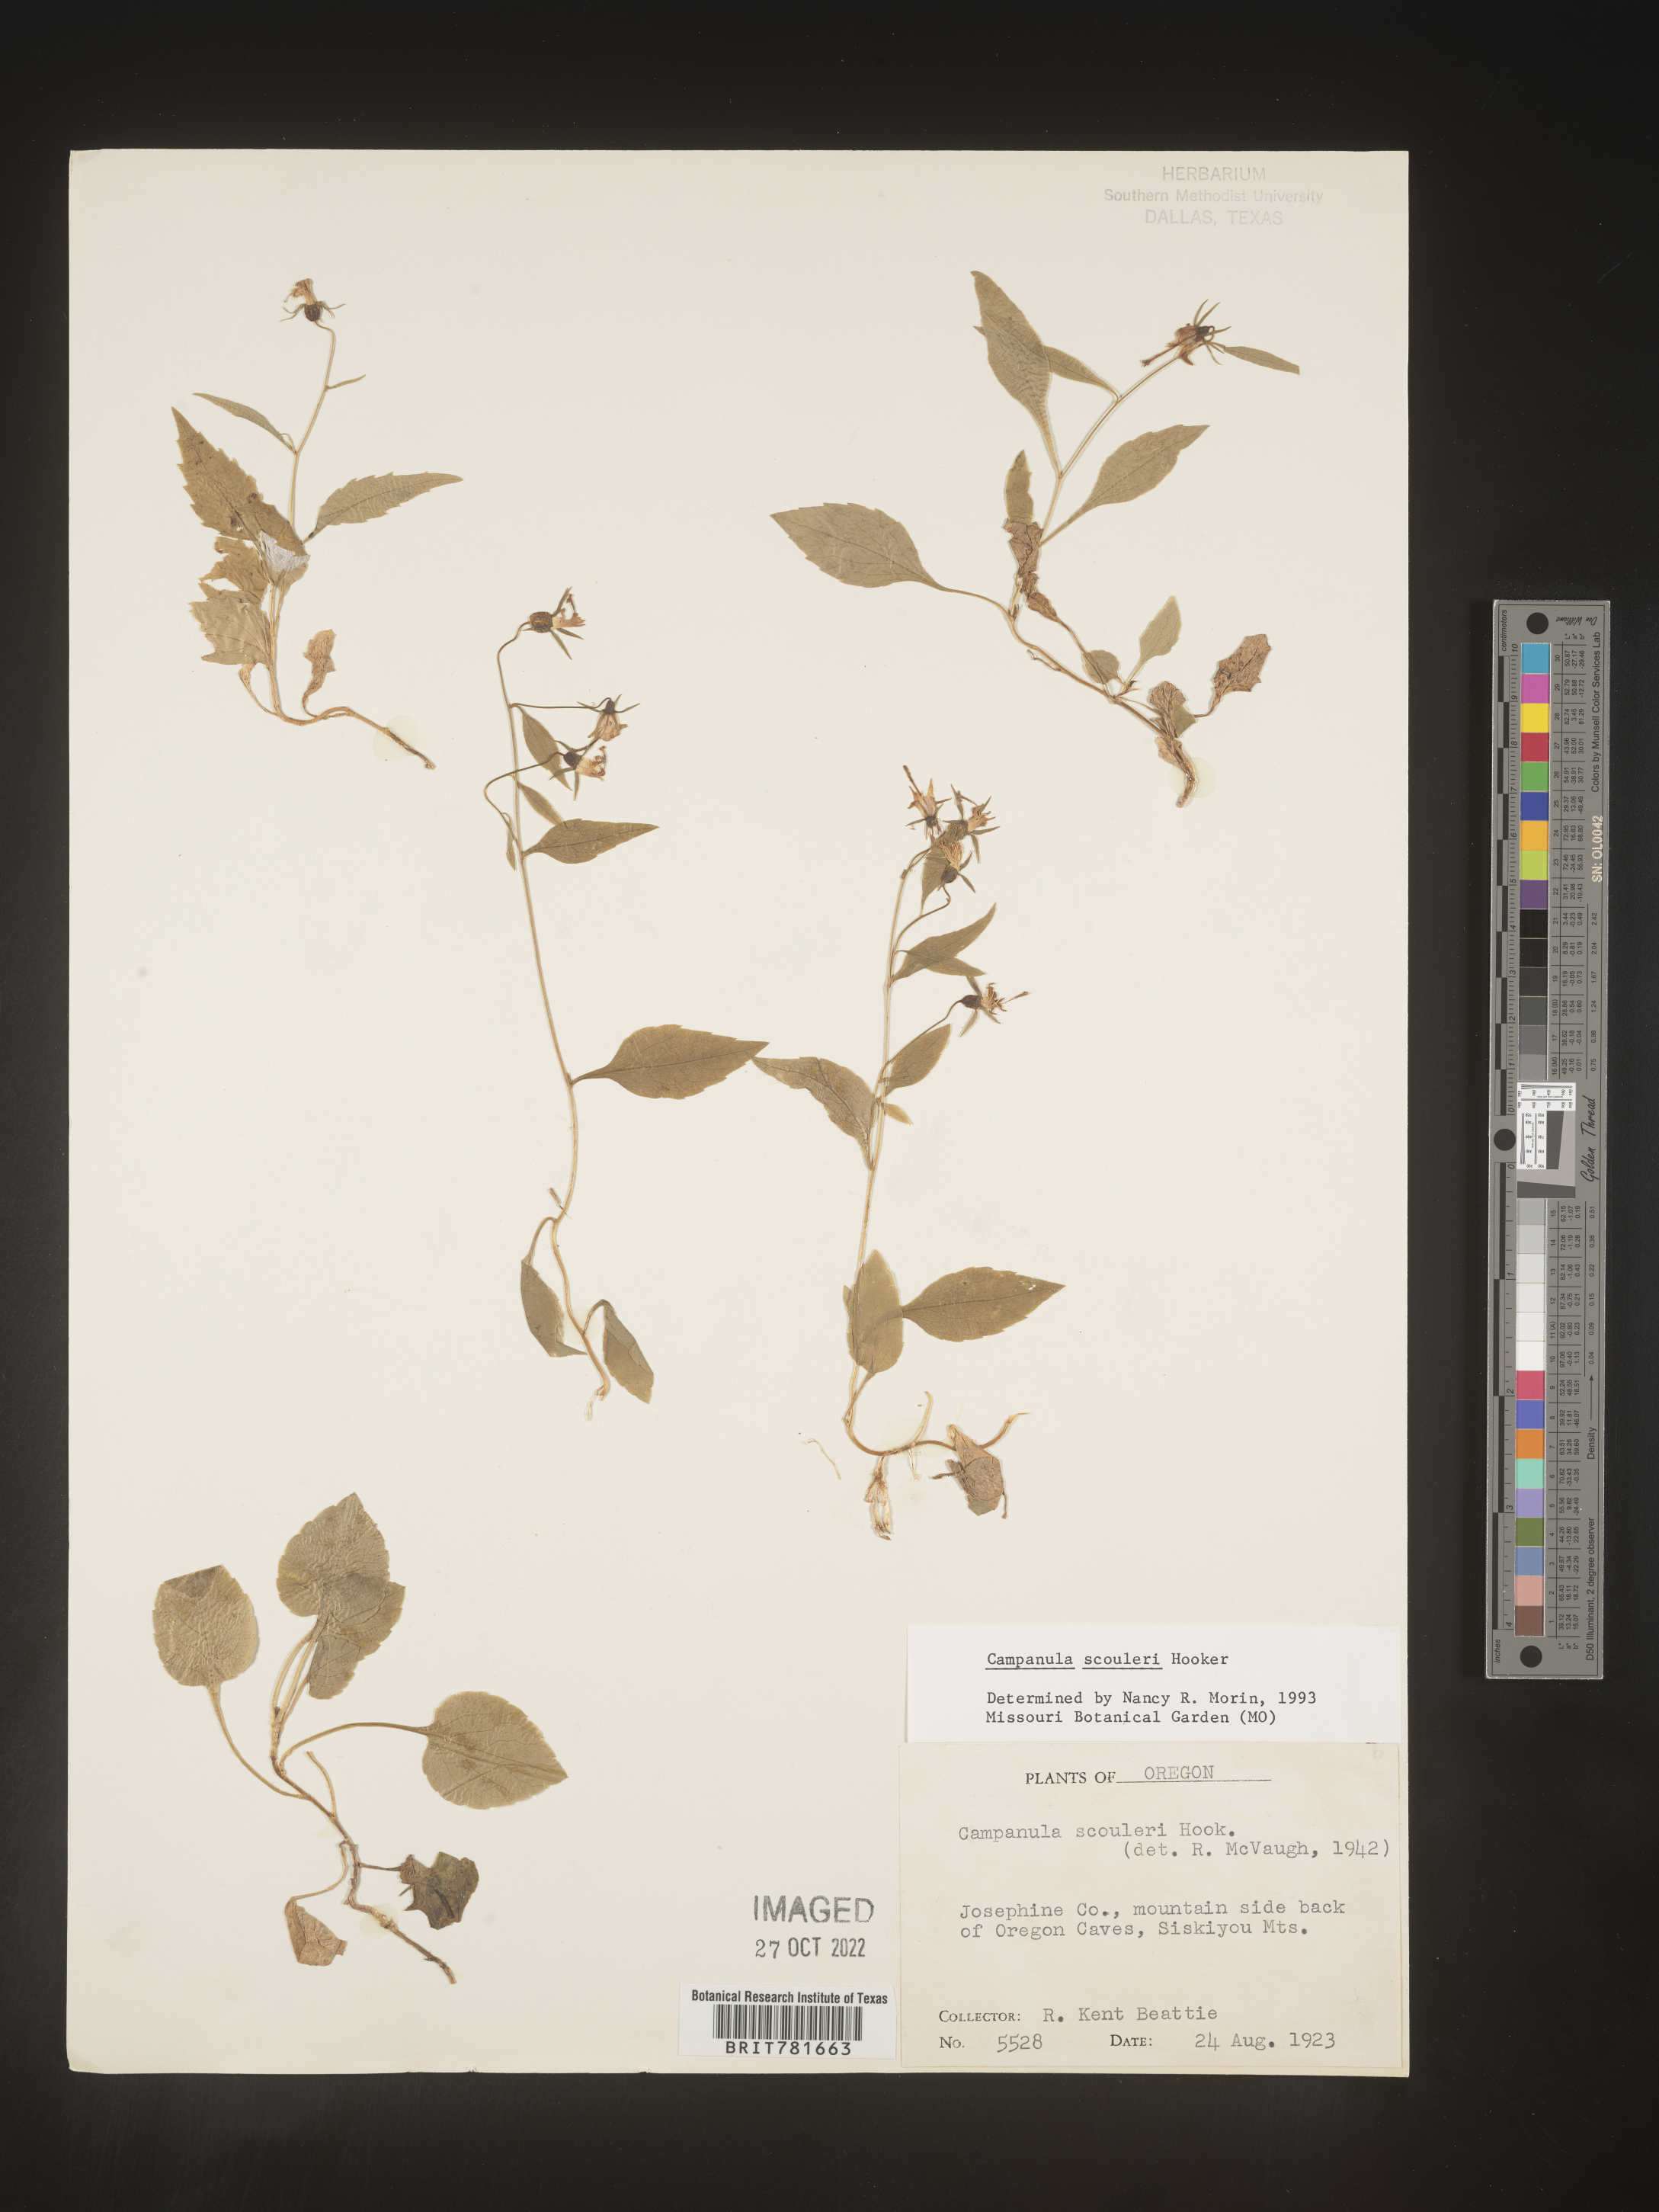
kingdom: Plantae
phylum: Tracheophyta
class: Magnoliopsida
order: Asterales
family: Campanulaceae
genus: Campanula
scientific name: Campanula
